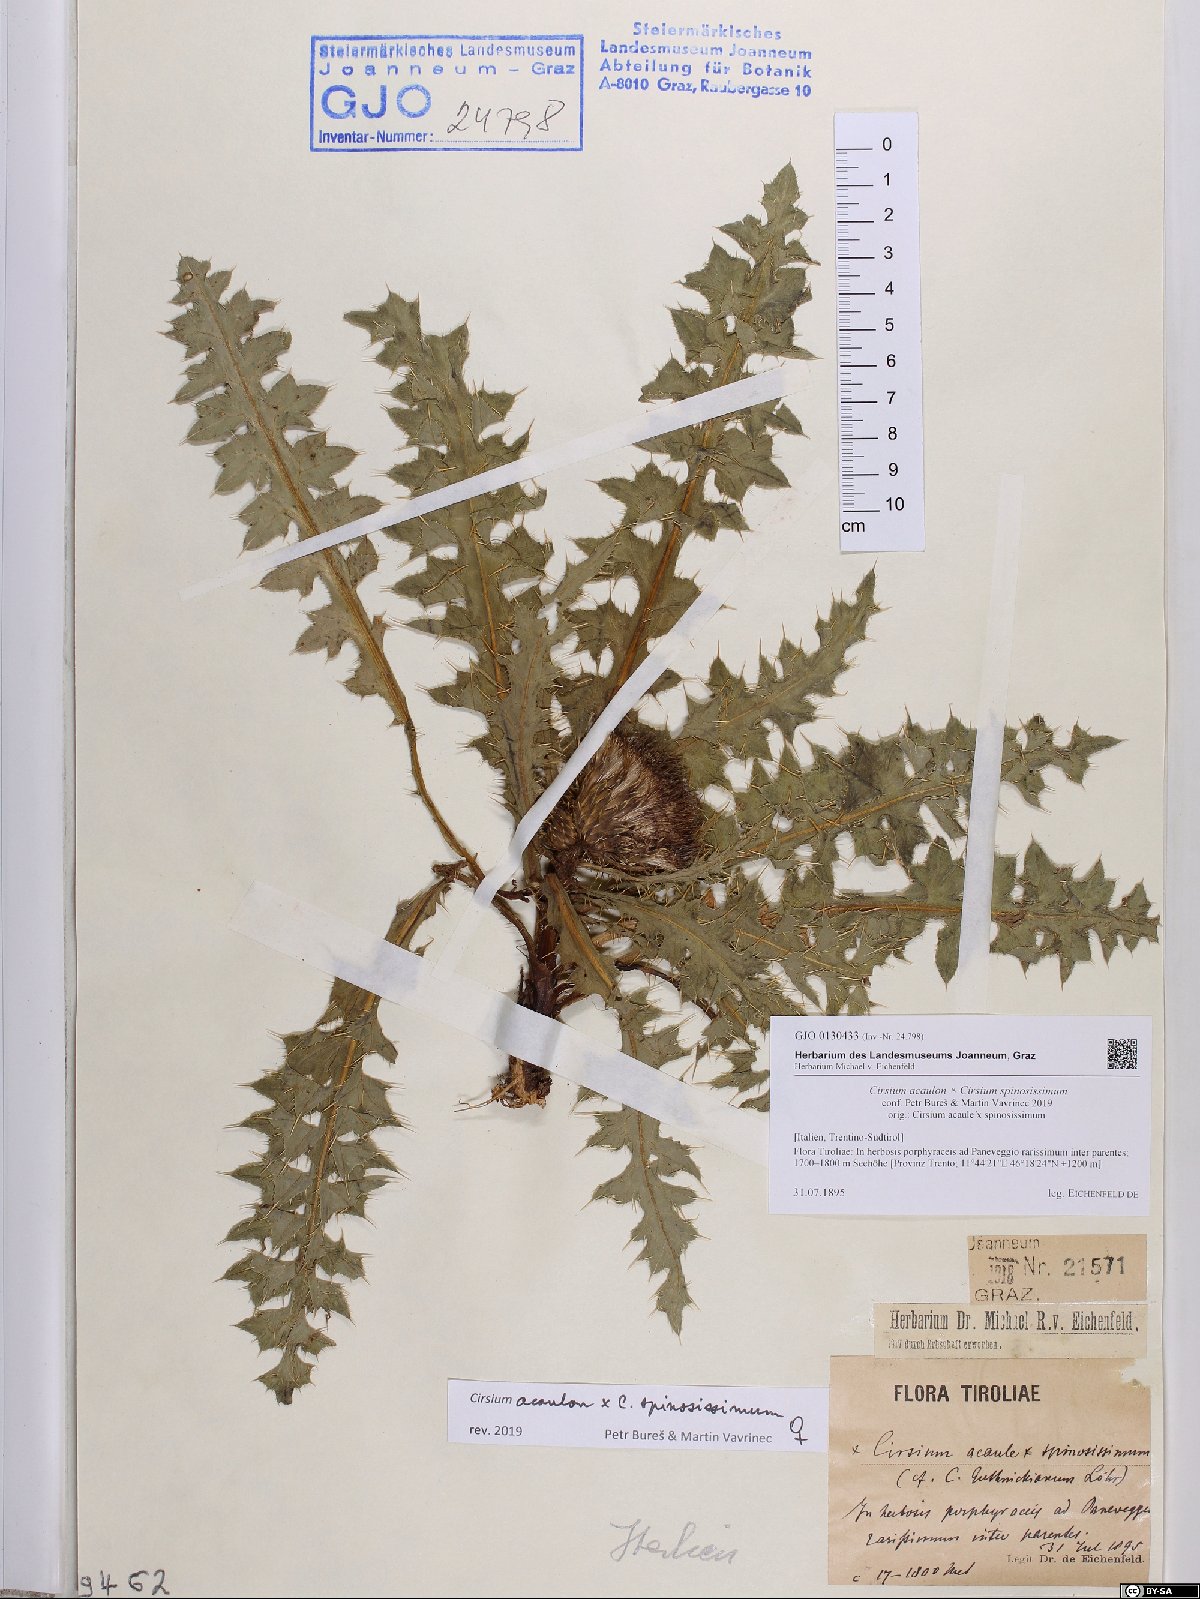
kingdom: Plantae
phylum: Tracheophyta
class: Magnoliopsida
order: Asterales
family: Asteraceae
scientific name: Asteraceae
